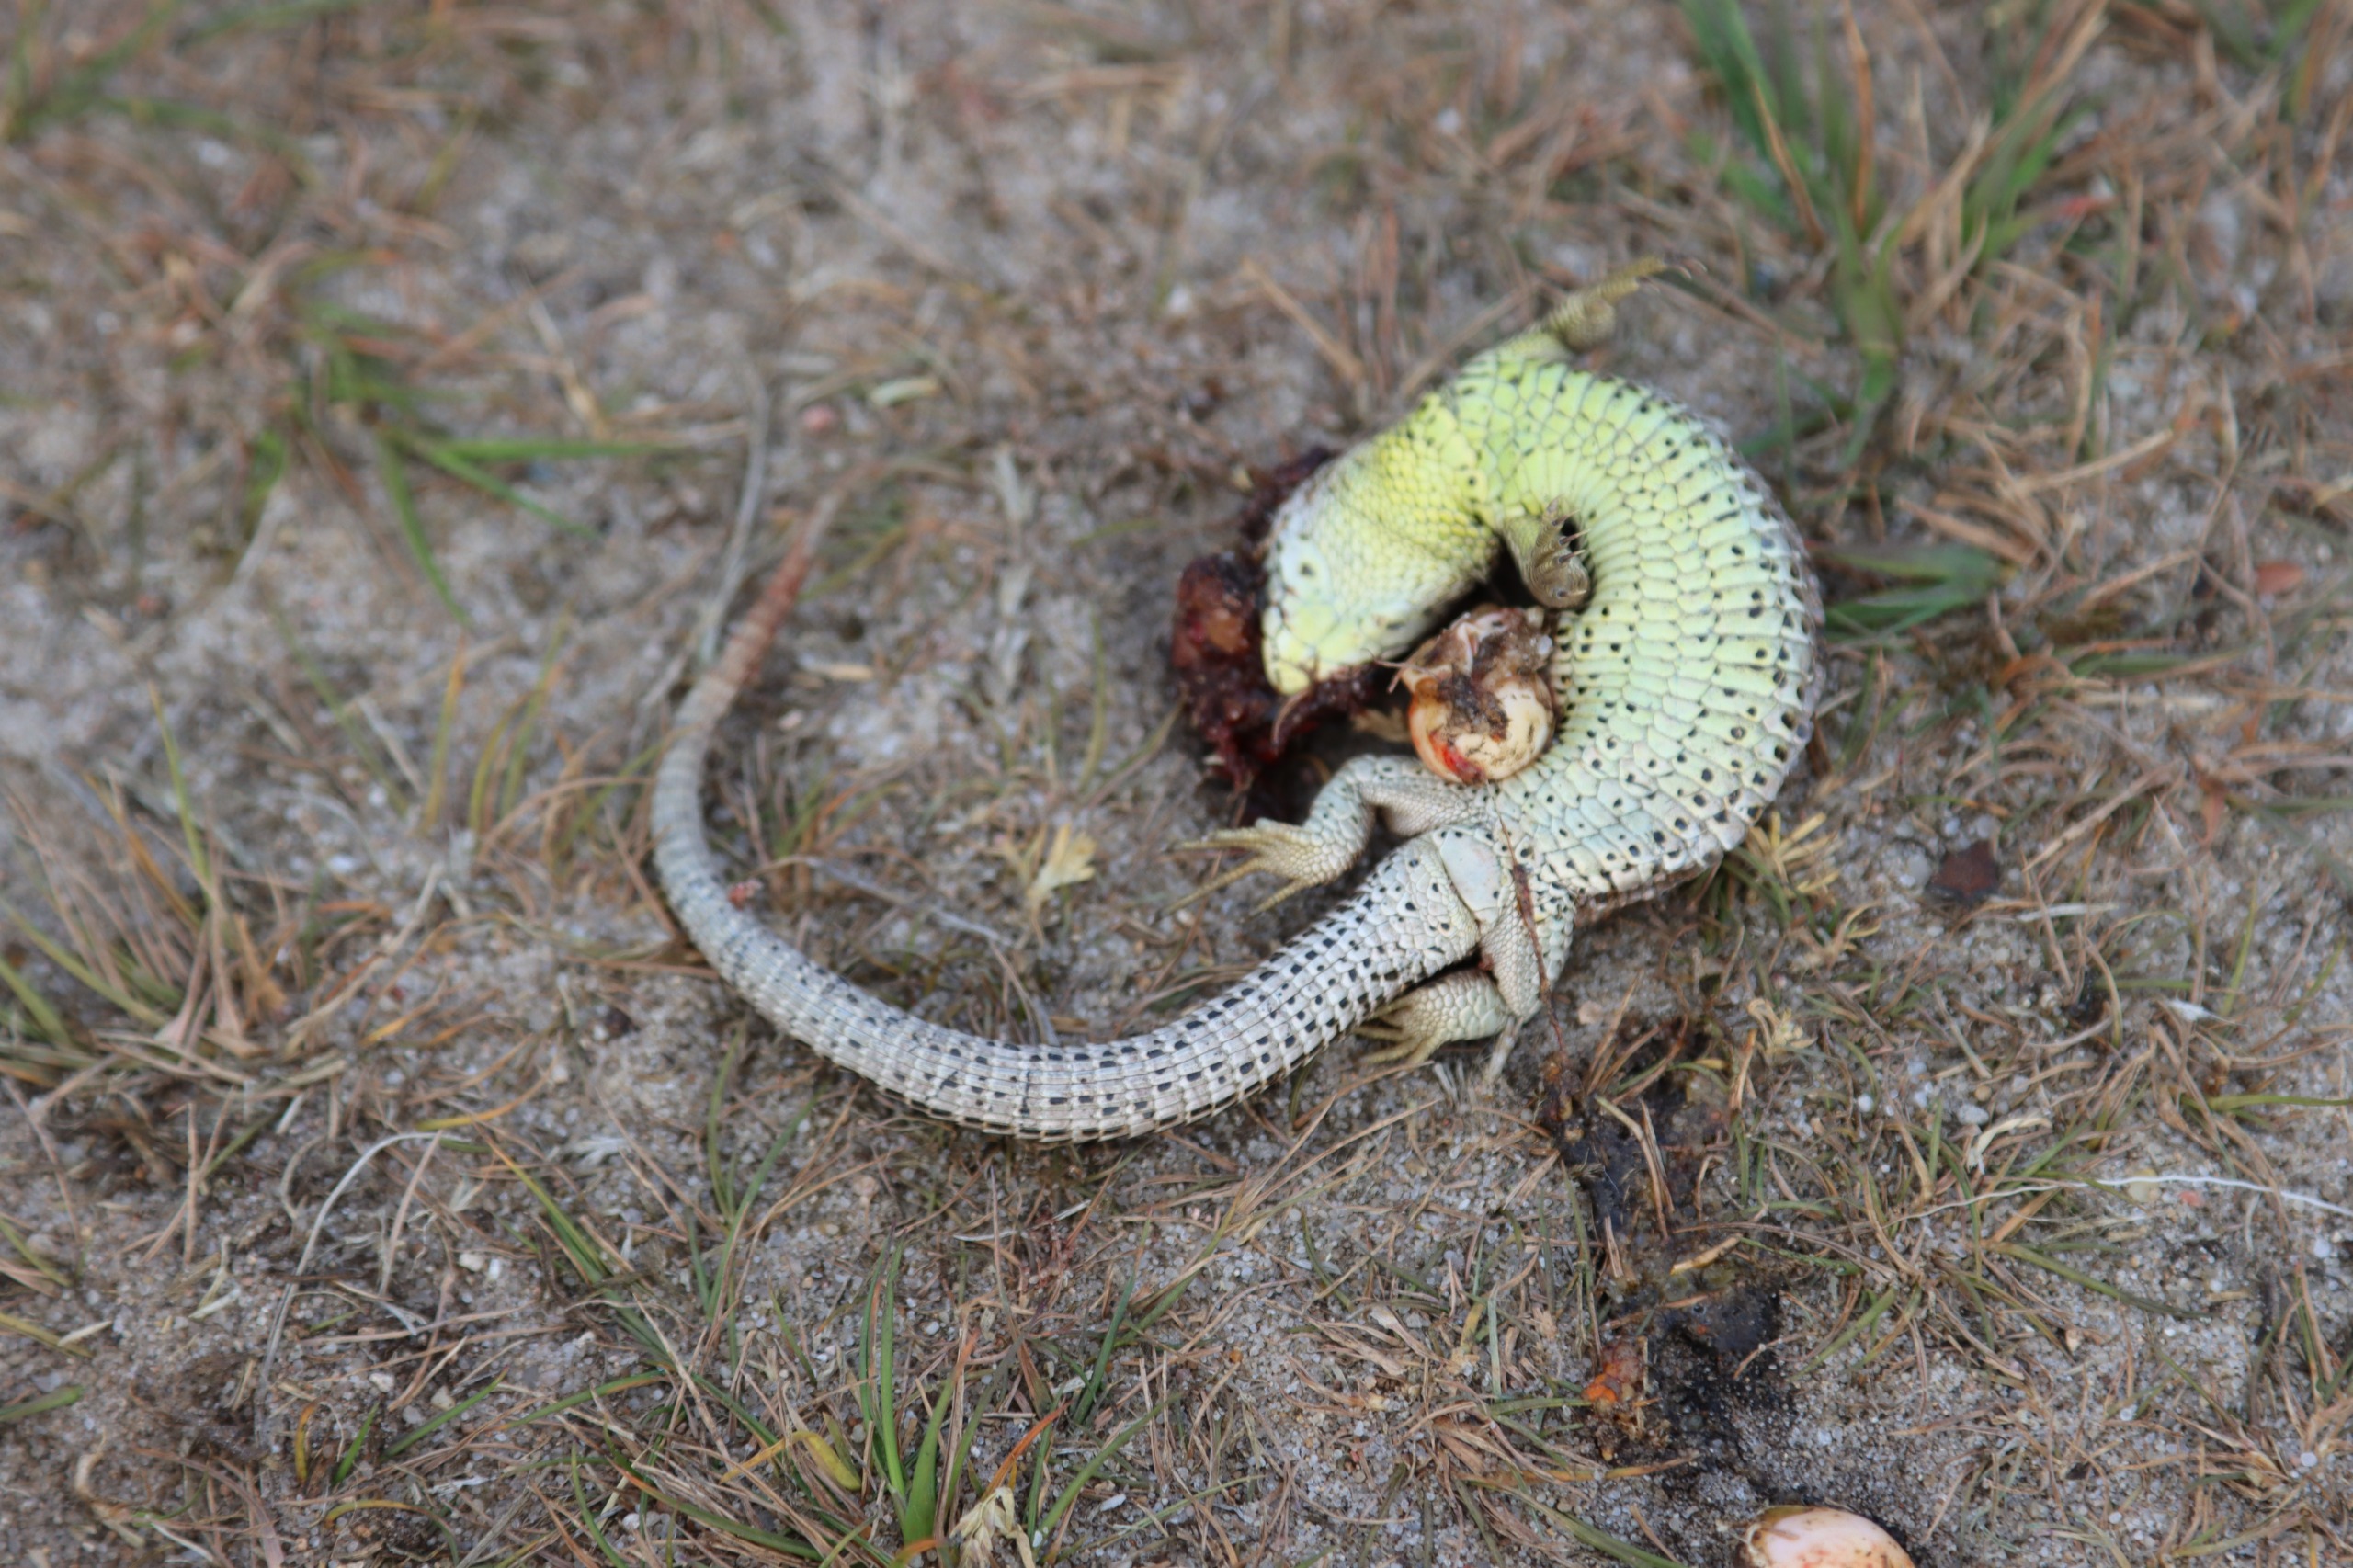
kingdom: Animalia
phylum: Chordata
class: Squamata
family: Lacertidae
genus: Lacerta
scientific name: Lacerta agilis
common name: Markfirben
